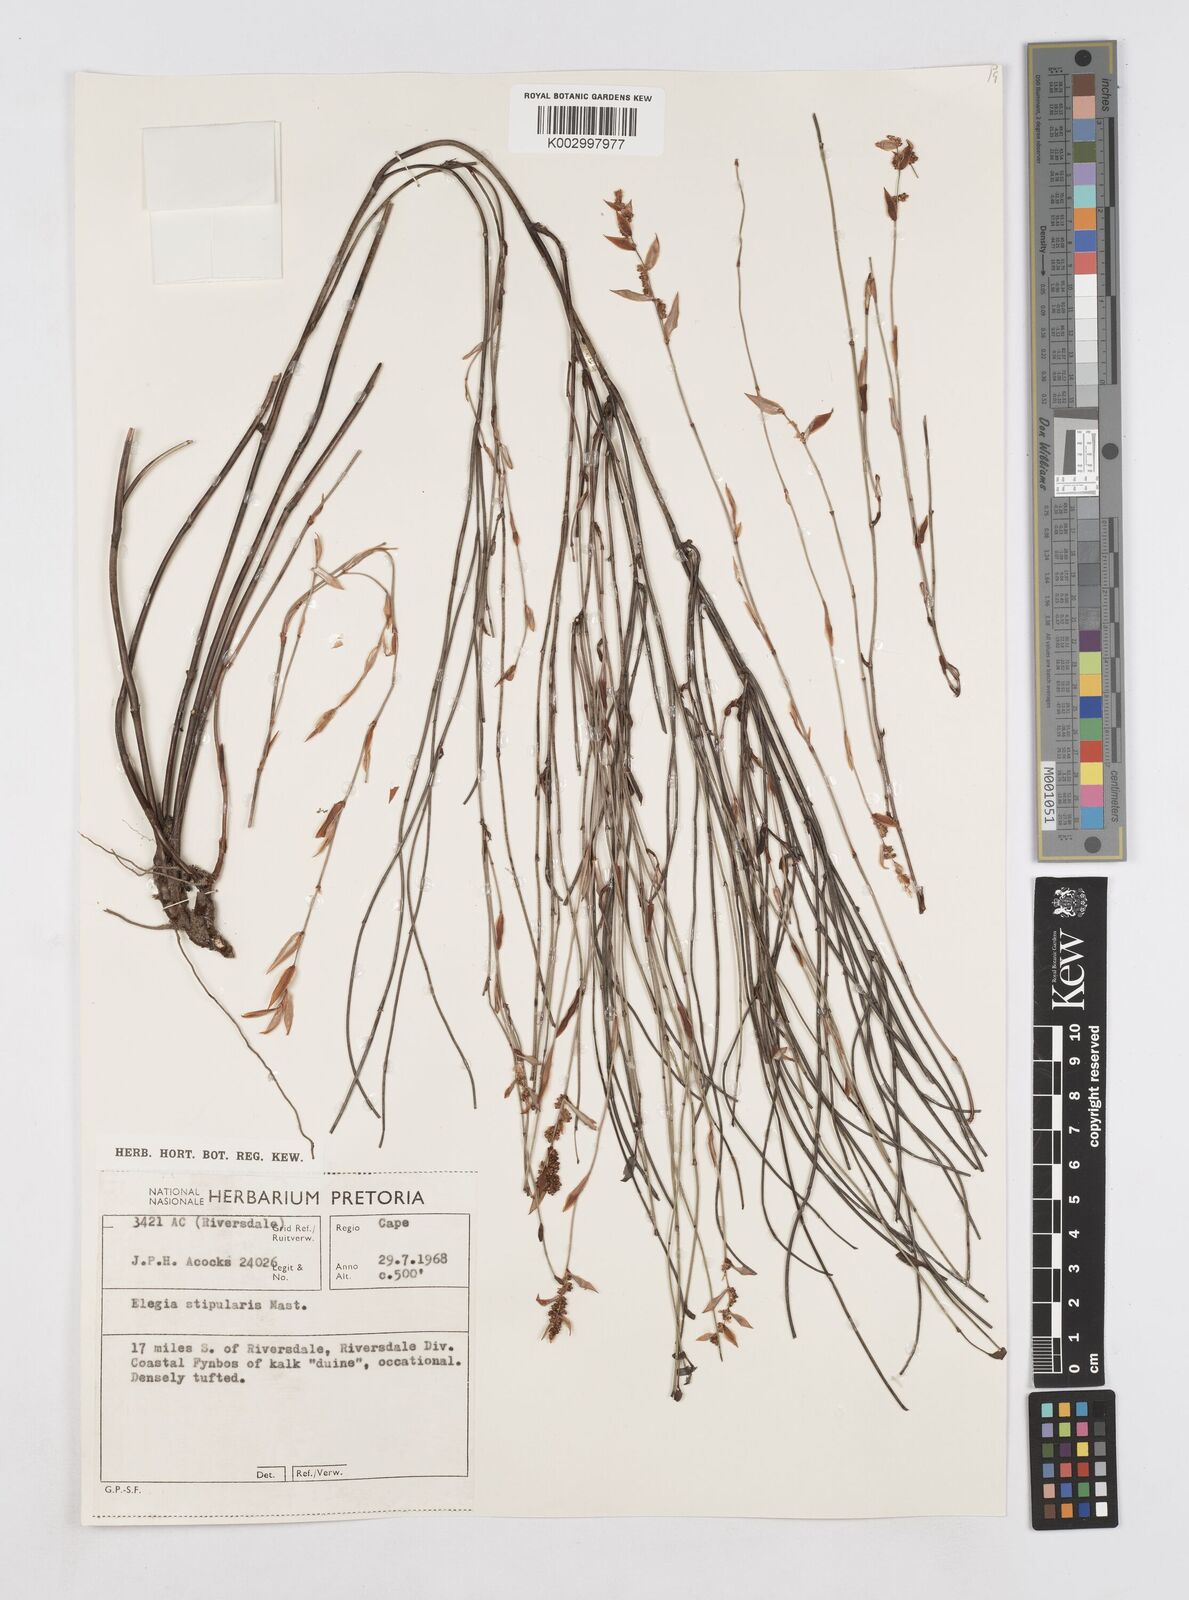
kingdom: Plantae
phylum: Tracheophyta
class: Liliopsida
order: Poales
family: Restionaceae
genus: Elegia
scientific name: Elegia stipularis
